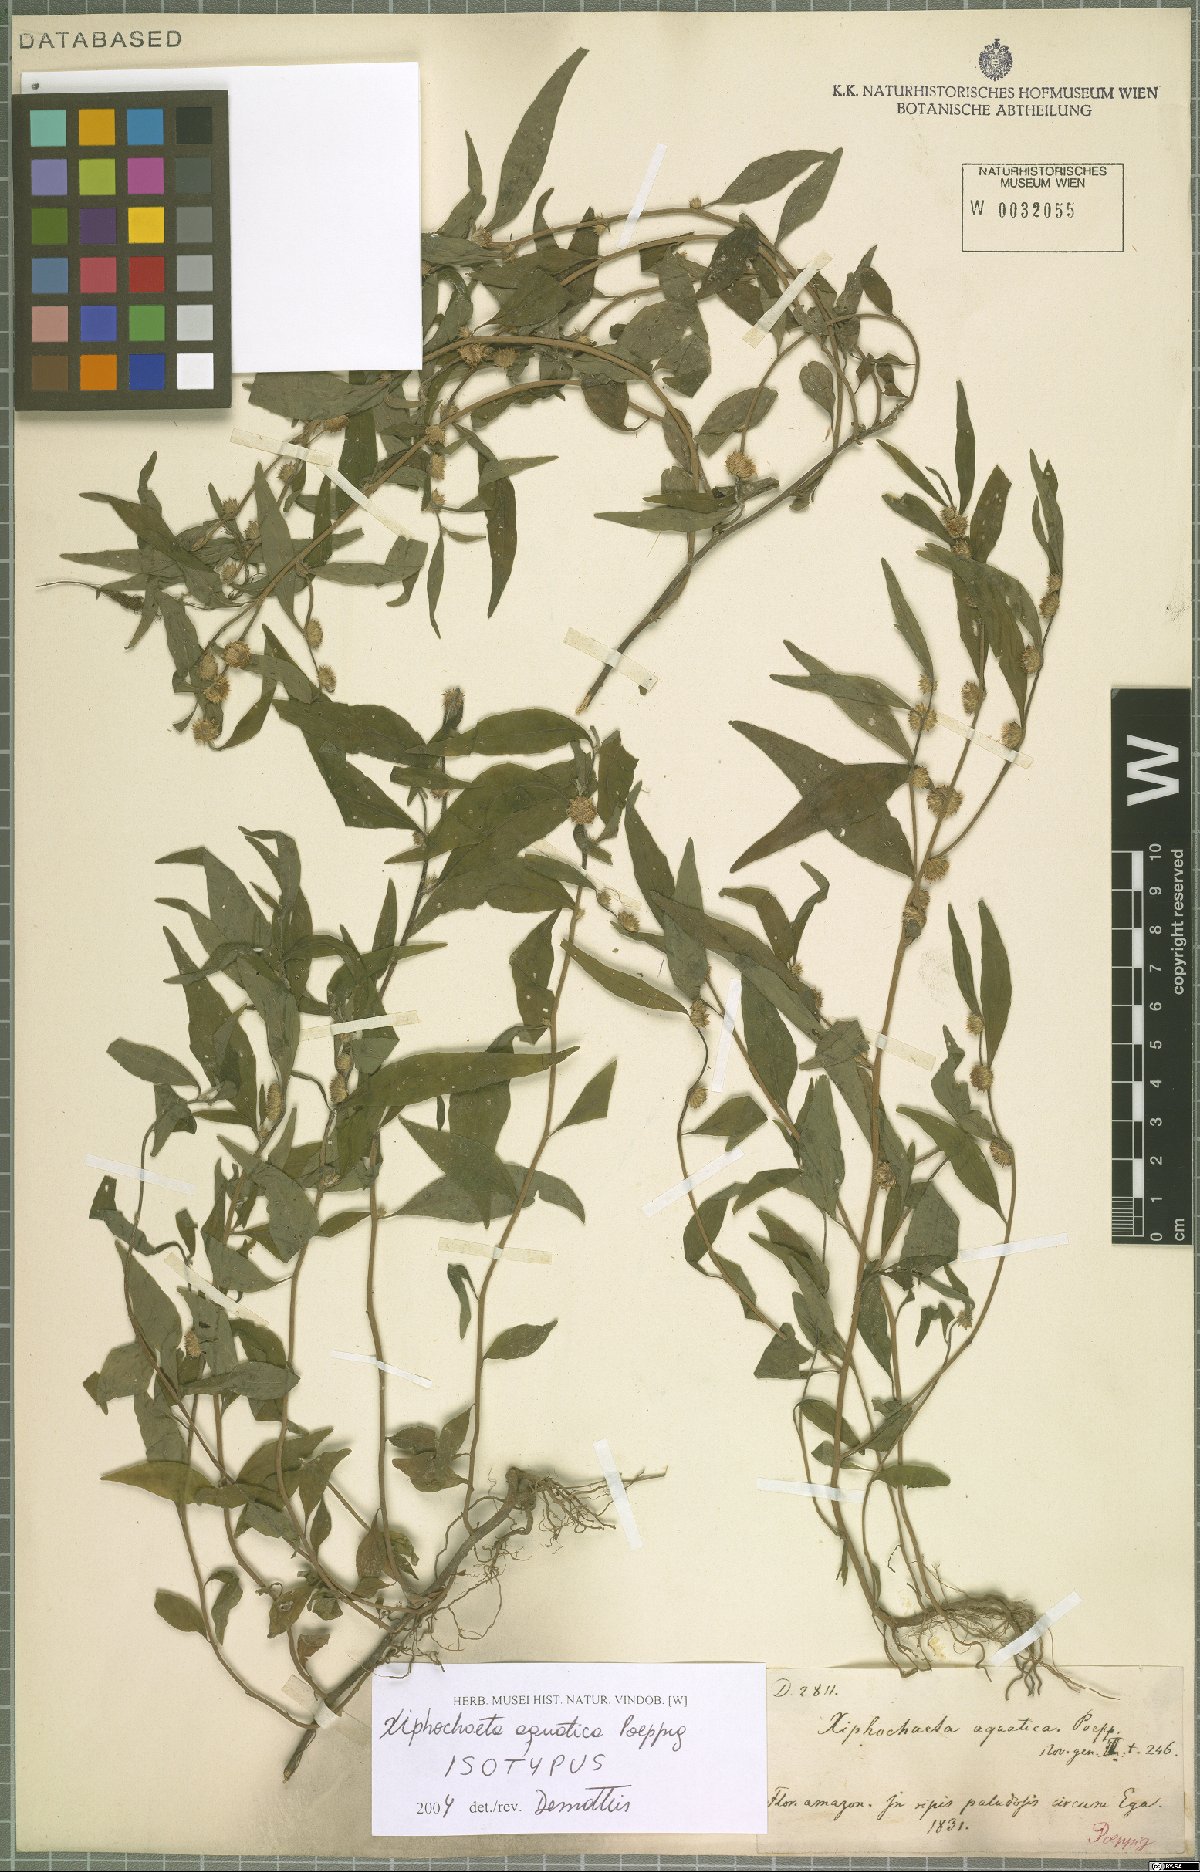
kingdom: Plantae
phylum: Tracheophyta
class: Magnoliopsida
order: Asterales
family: Asteraceae
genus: Xiphochaeta
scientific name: Xiphochaeta aquatica
